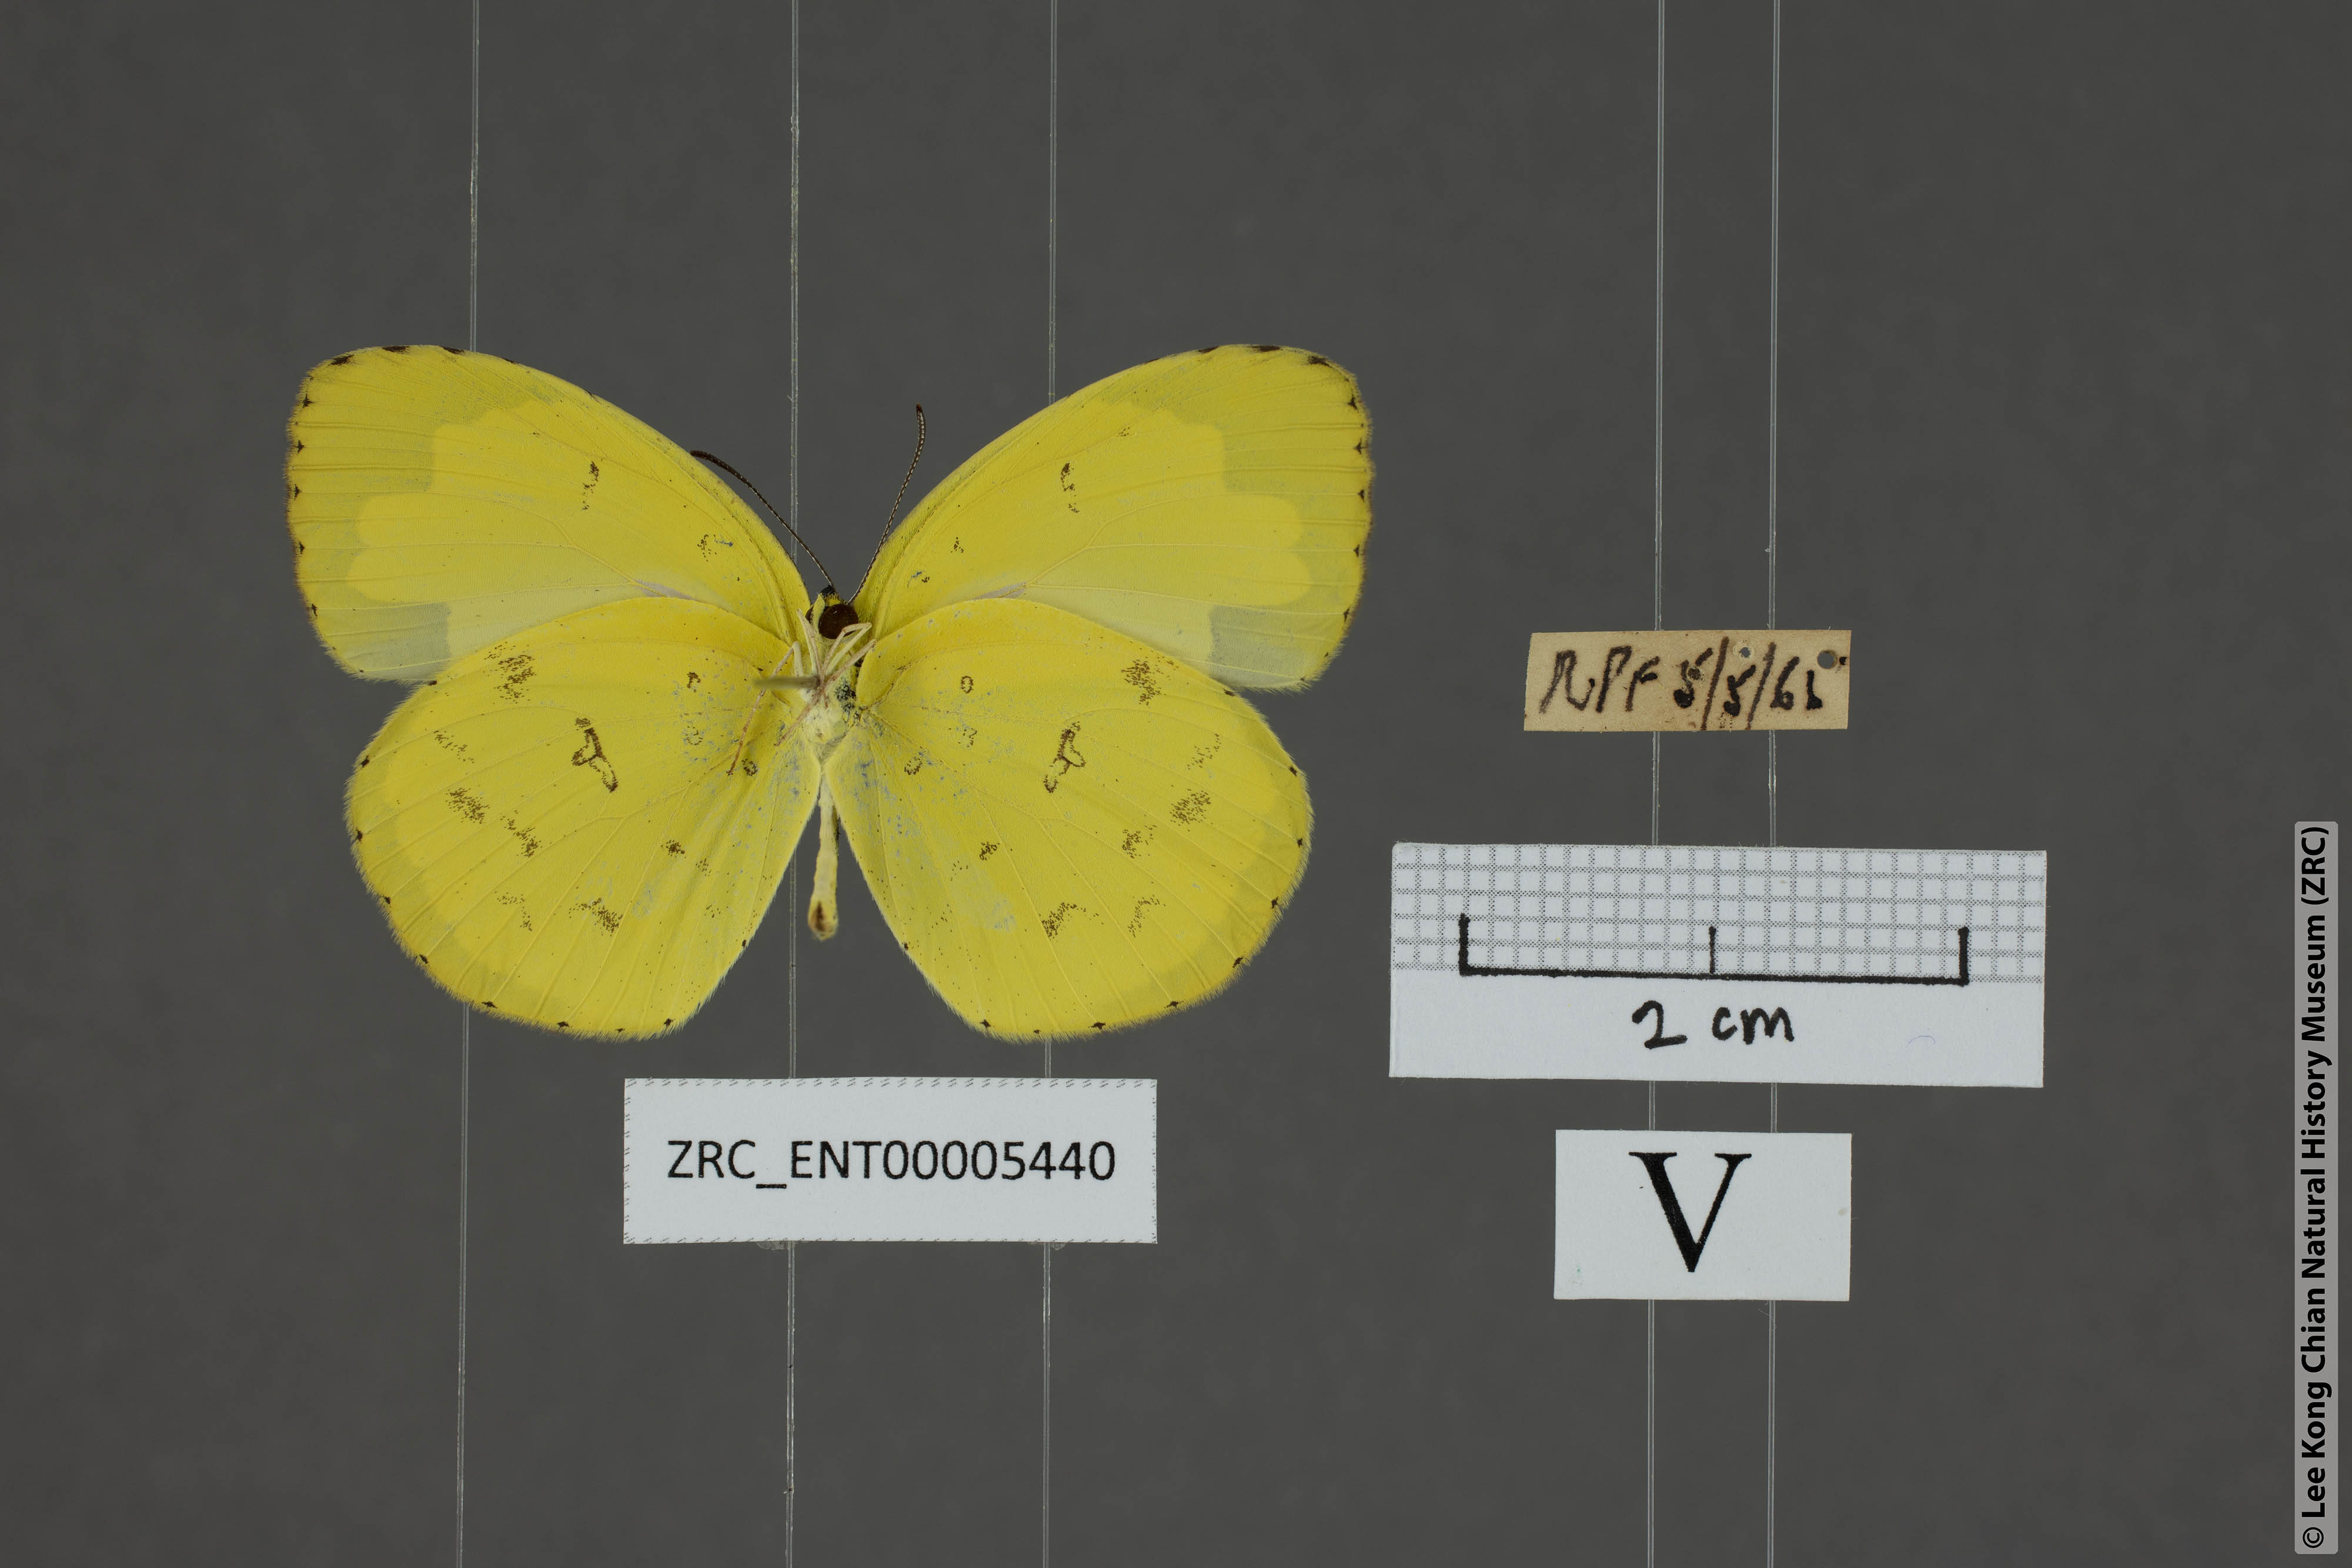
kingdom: Animalia
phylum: Arthropoda
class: Insecta
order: Lepidoptera
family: Pieridae
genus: Eurema
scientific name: Eurema hecabe
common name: Pale grass yellow
